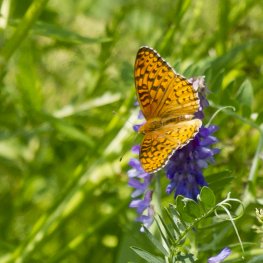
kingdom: Animalia
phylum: Arthropoda
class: Insecta
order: Lepidoptera
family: Nymphalidae
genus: Speyeria
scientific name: Speyeria atlantis
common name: Atlantis Fritillary
